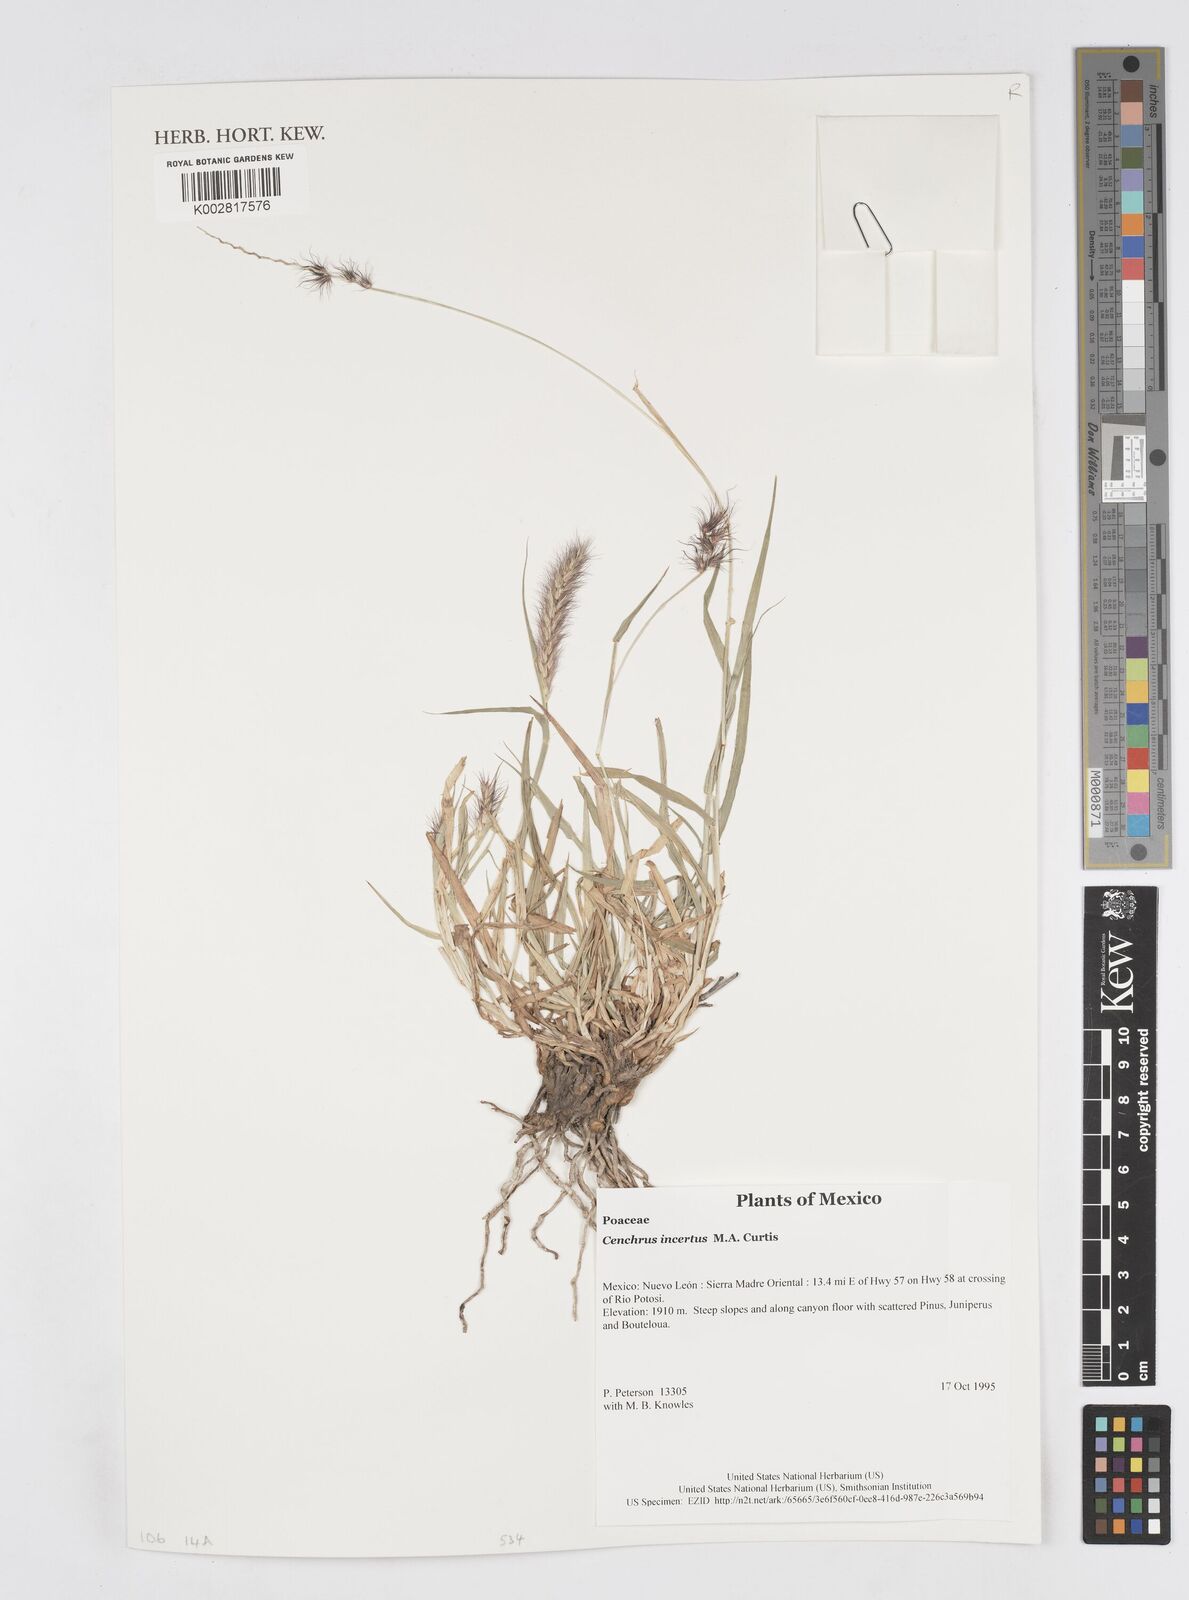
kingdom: Plantae
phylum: Tracheophyta
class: Liliopsida
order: Poales
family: Poaceae
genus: Cenchrus
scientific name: Cenchrus spinifex
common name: Coast sandbur
